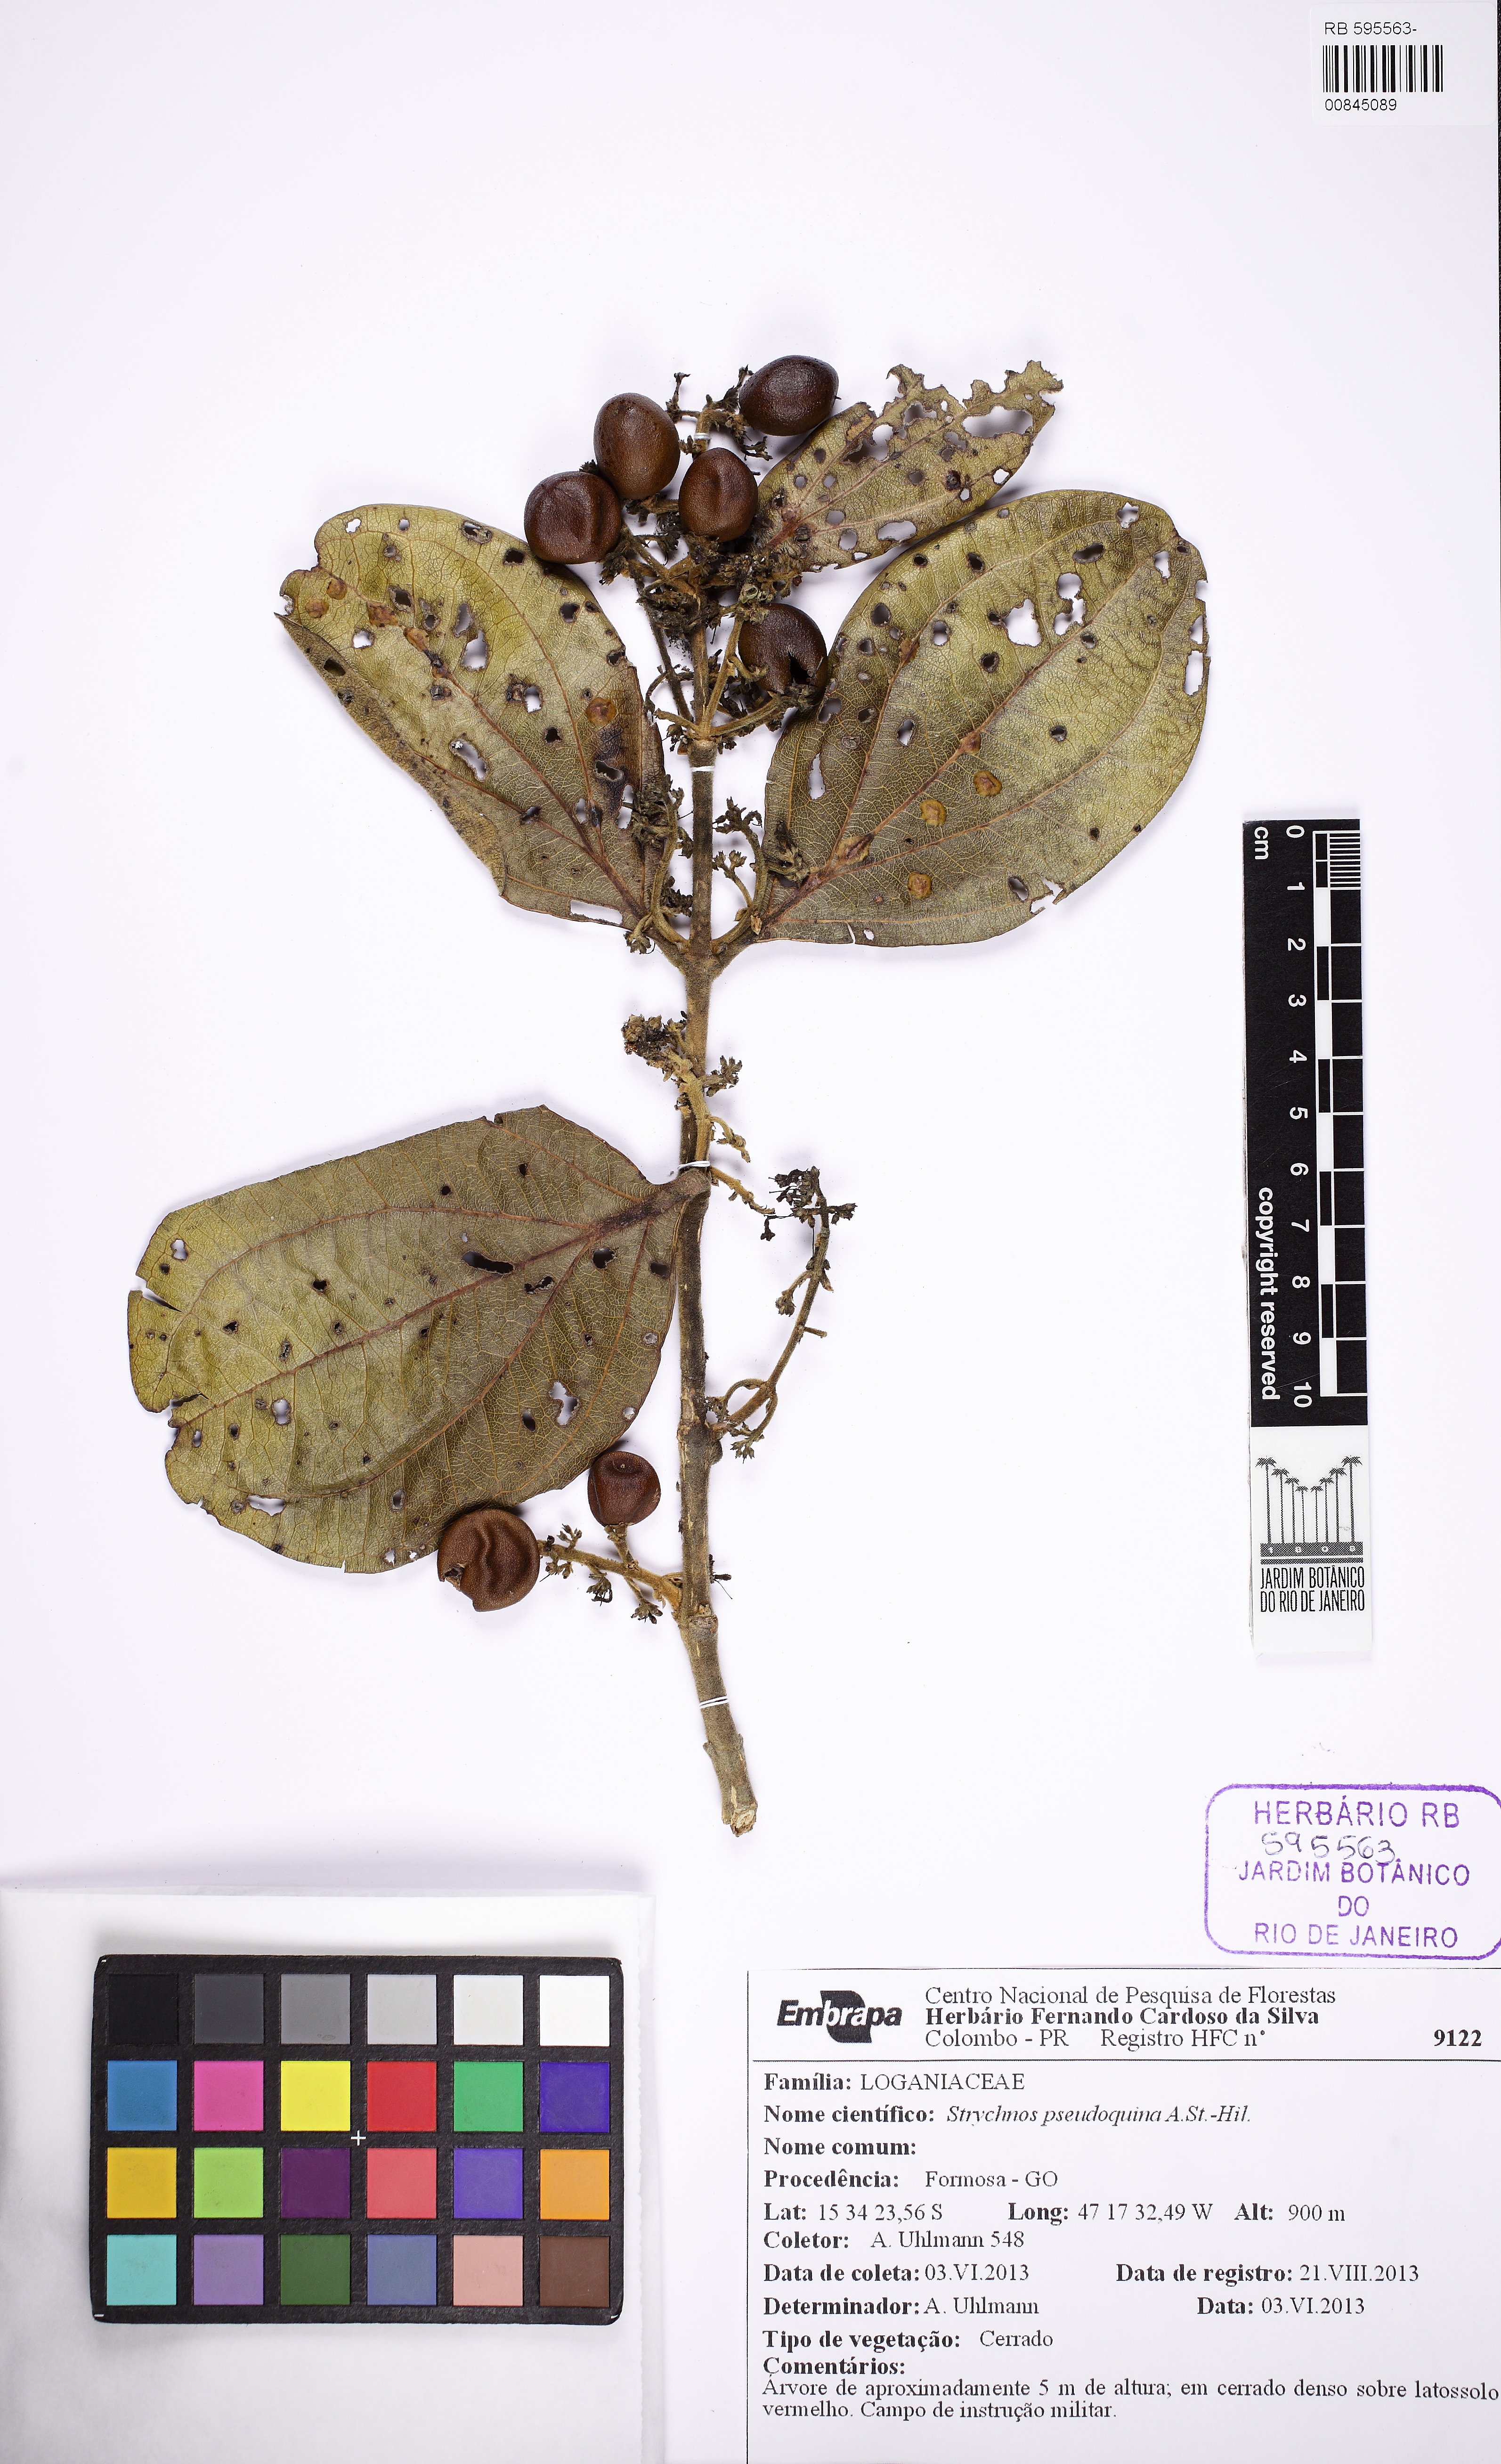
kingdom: Plantae
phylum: Tracheophyta
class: Magnoliopsida
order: Gentianales
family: Loganiaceae
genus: Strychnos
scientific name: Strychnos pseudoquina
